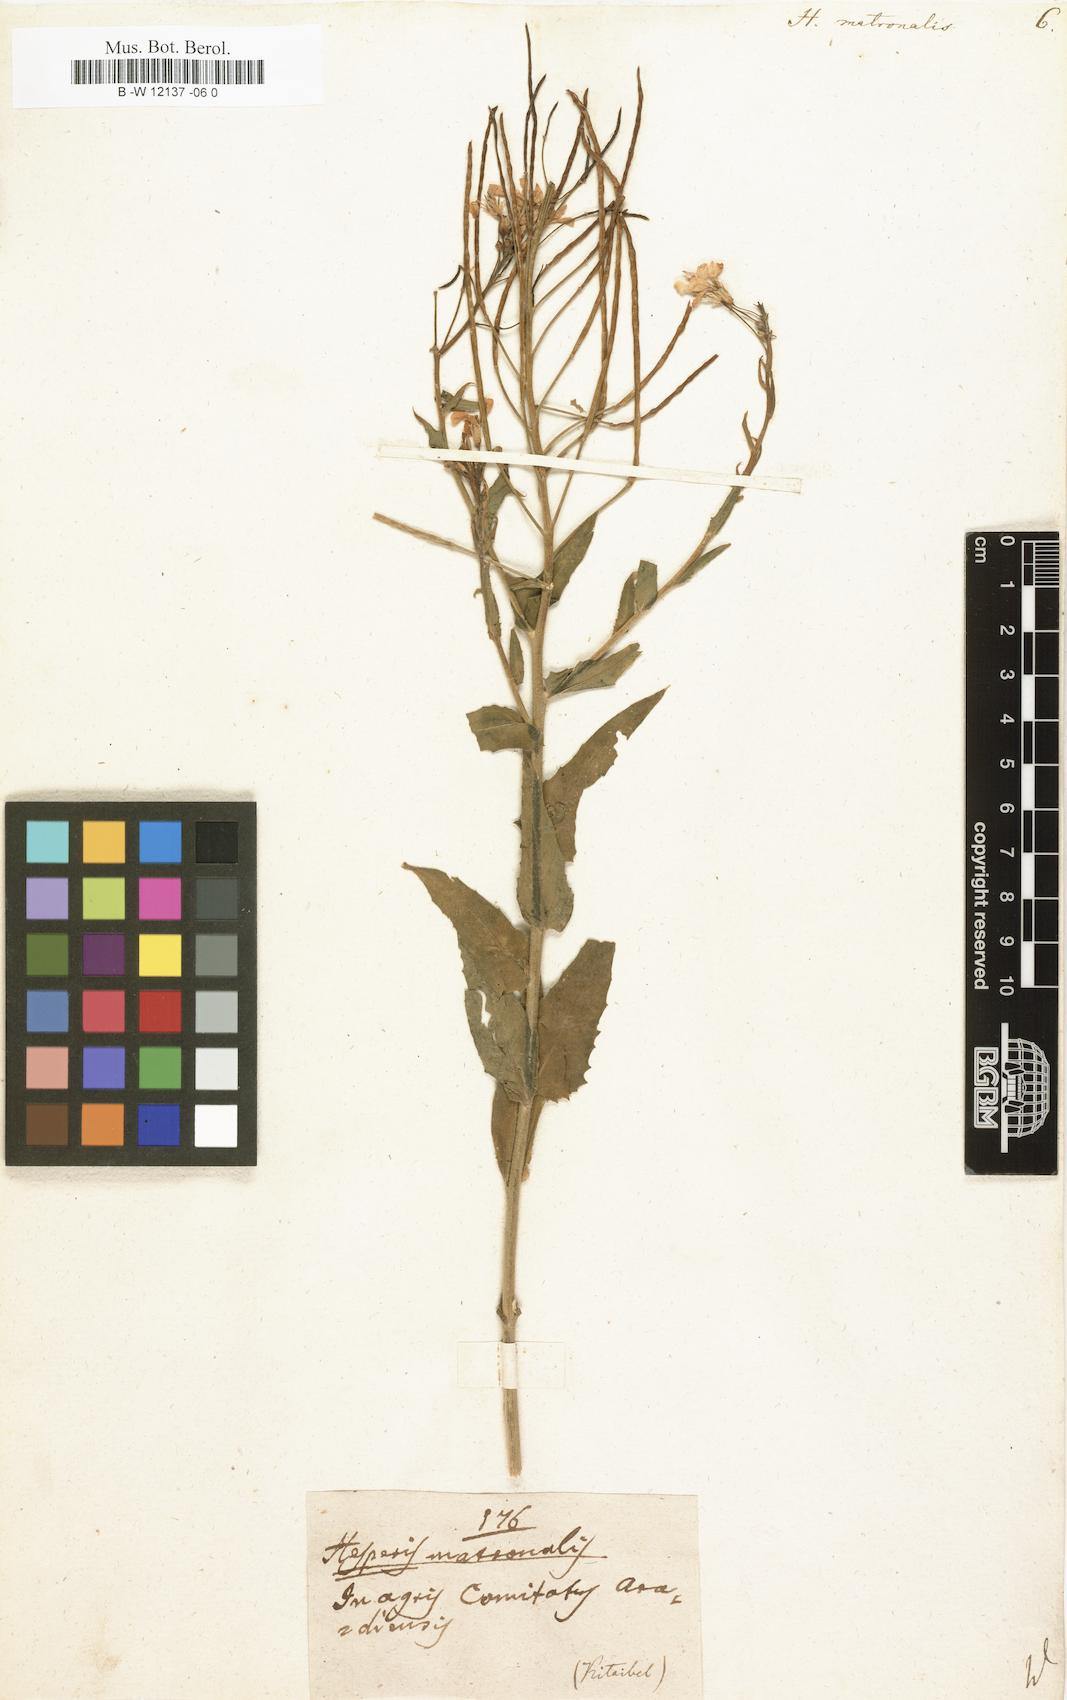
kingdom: Plantae
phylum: Tracheophyta
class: Magnoliopsida
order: Brassicales
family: Brassicaceae
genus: Hesperis
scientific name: Hesperis matronalis
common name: Dame's-violet
